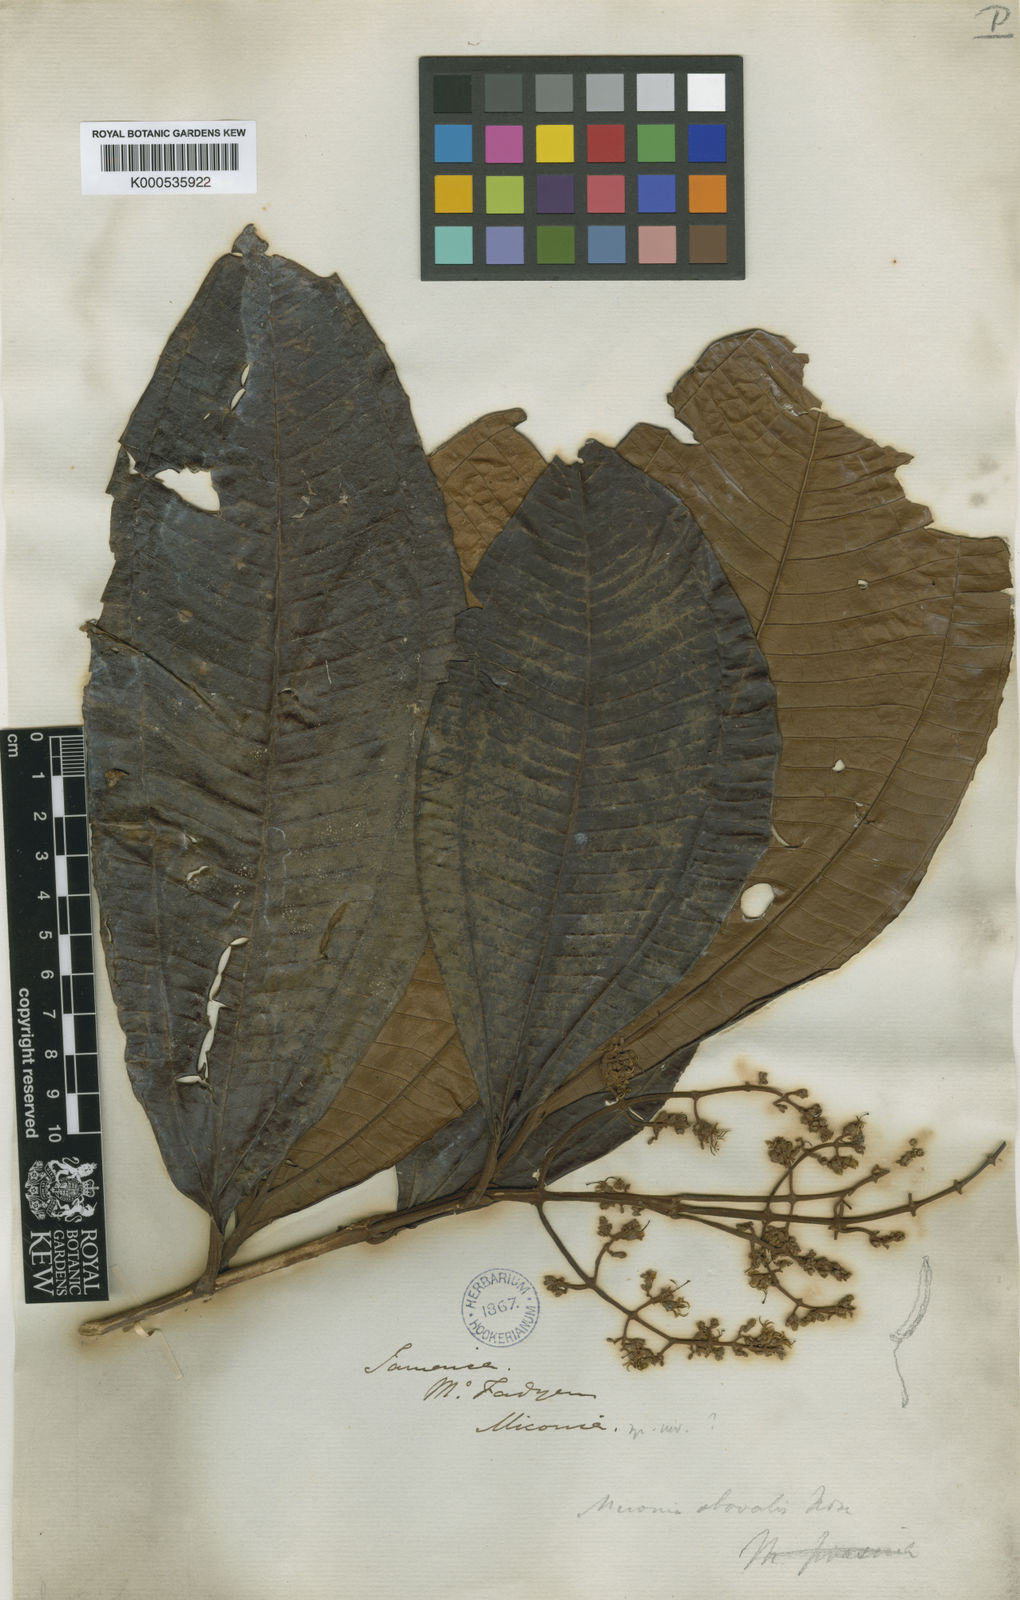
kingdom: Plantae
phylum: Tracheophyta
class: Magnoliopsida
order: Myrtales
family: Melastomataceae
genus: Miconia
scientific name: Miconia splendens
